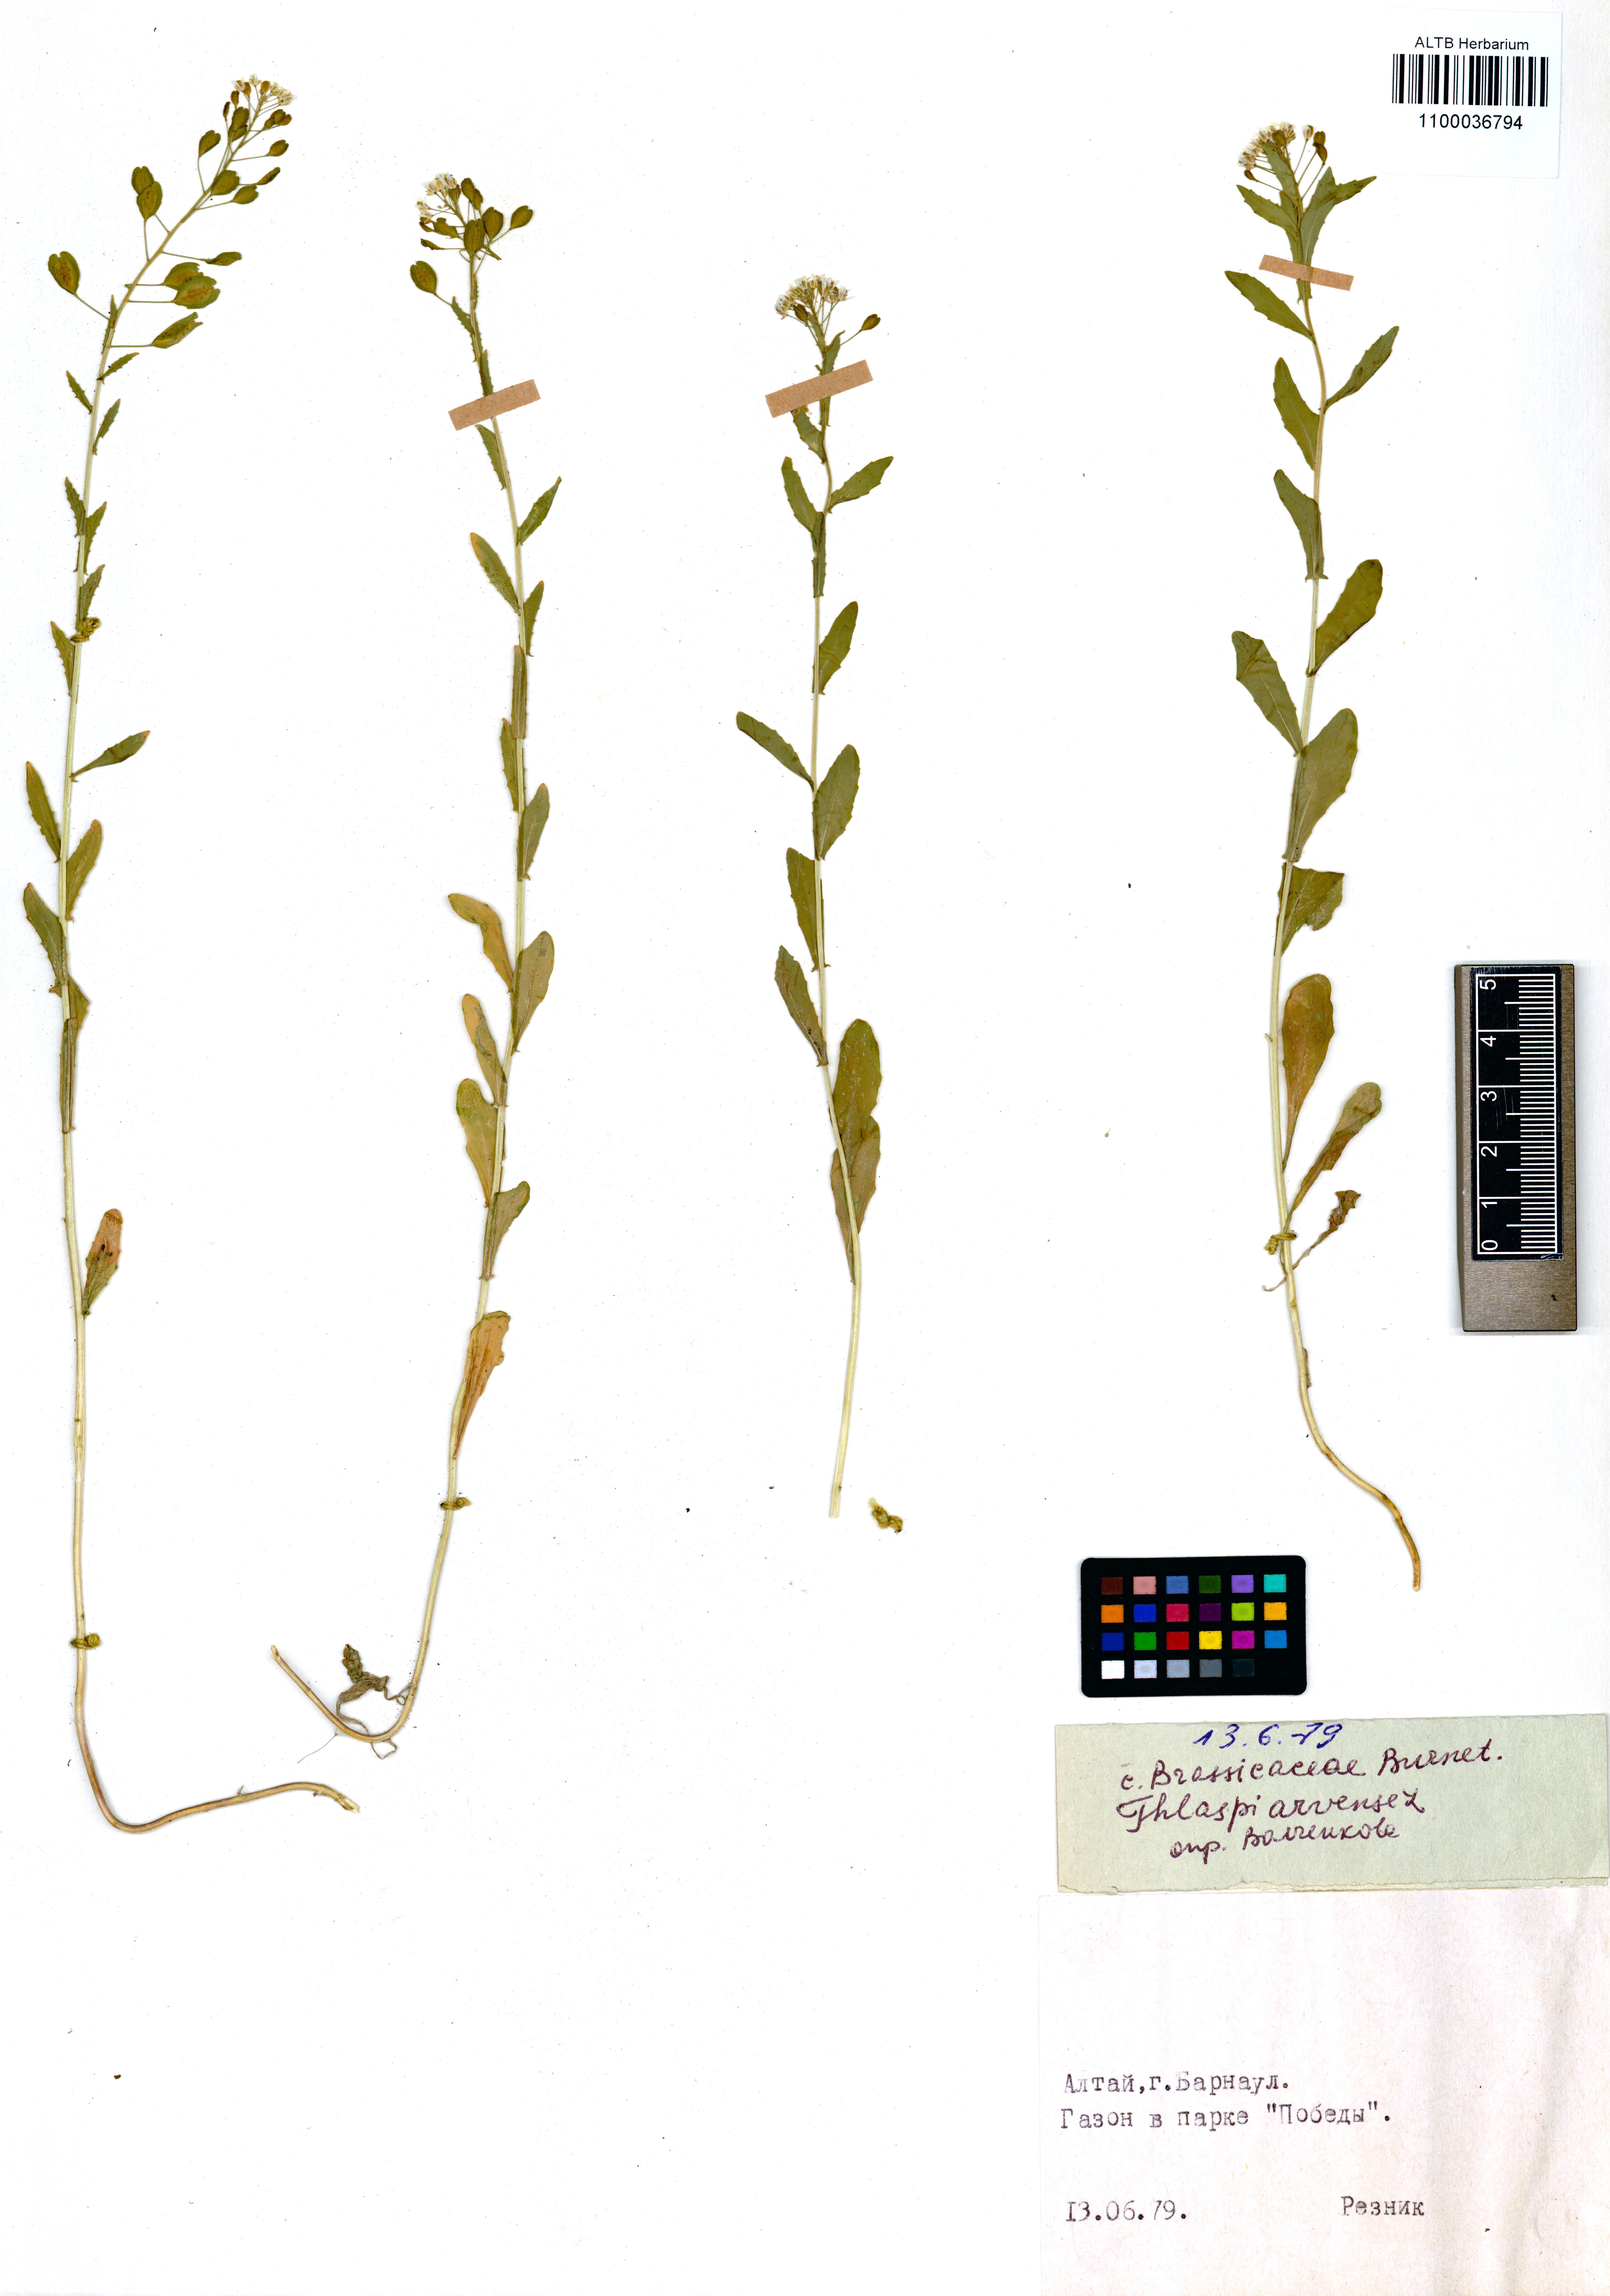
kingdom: Plantae
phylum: Tracheophyta
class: Magnoliopsida
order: Brassicales
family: Brassicaceae
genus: Thlaspi
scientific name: Thlaspi arvense
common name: Field pennycress
